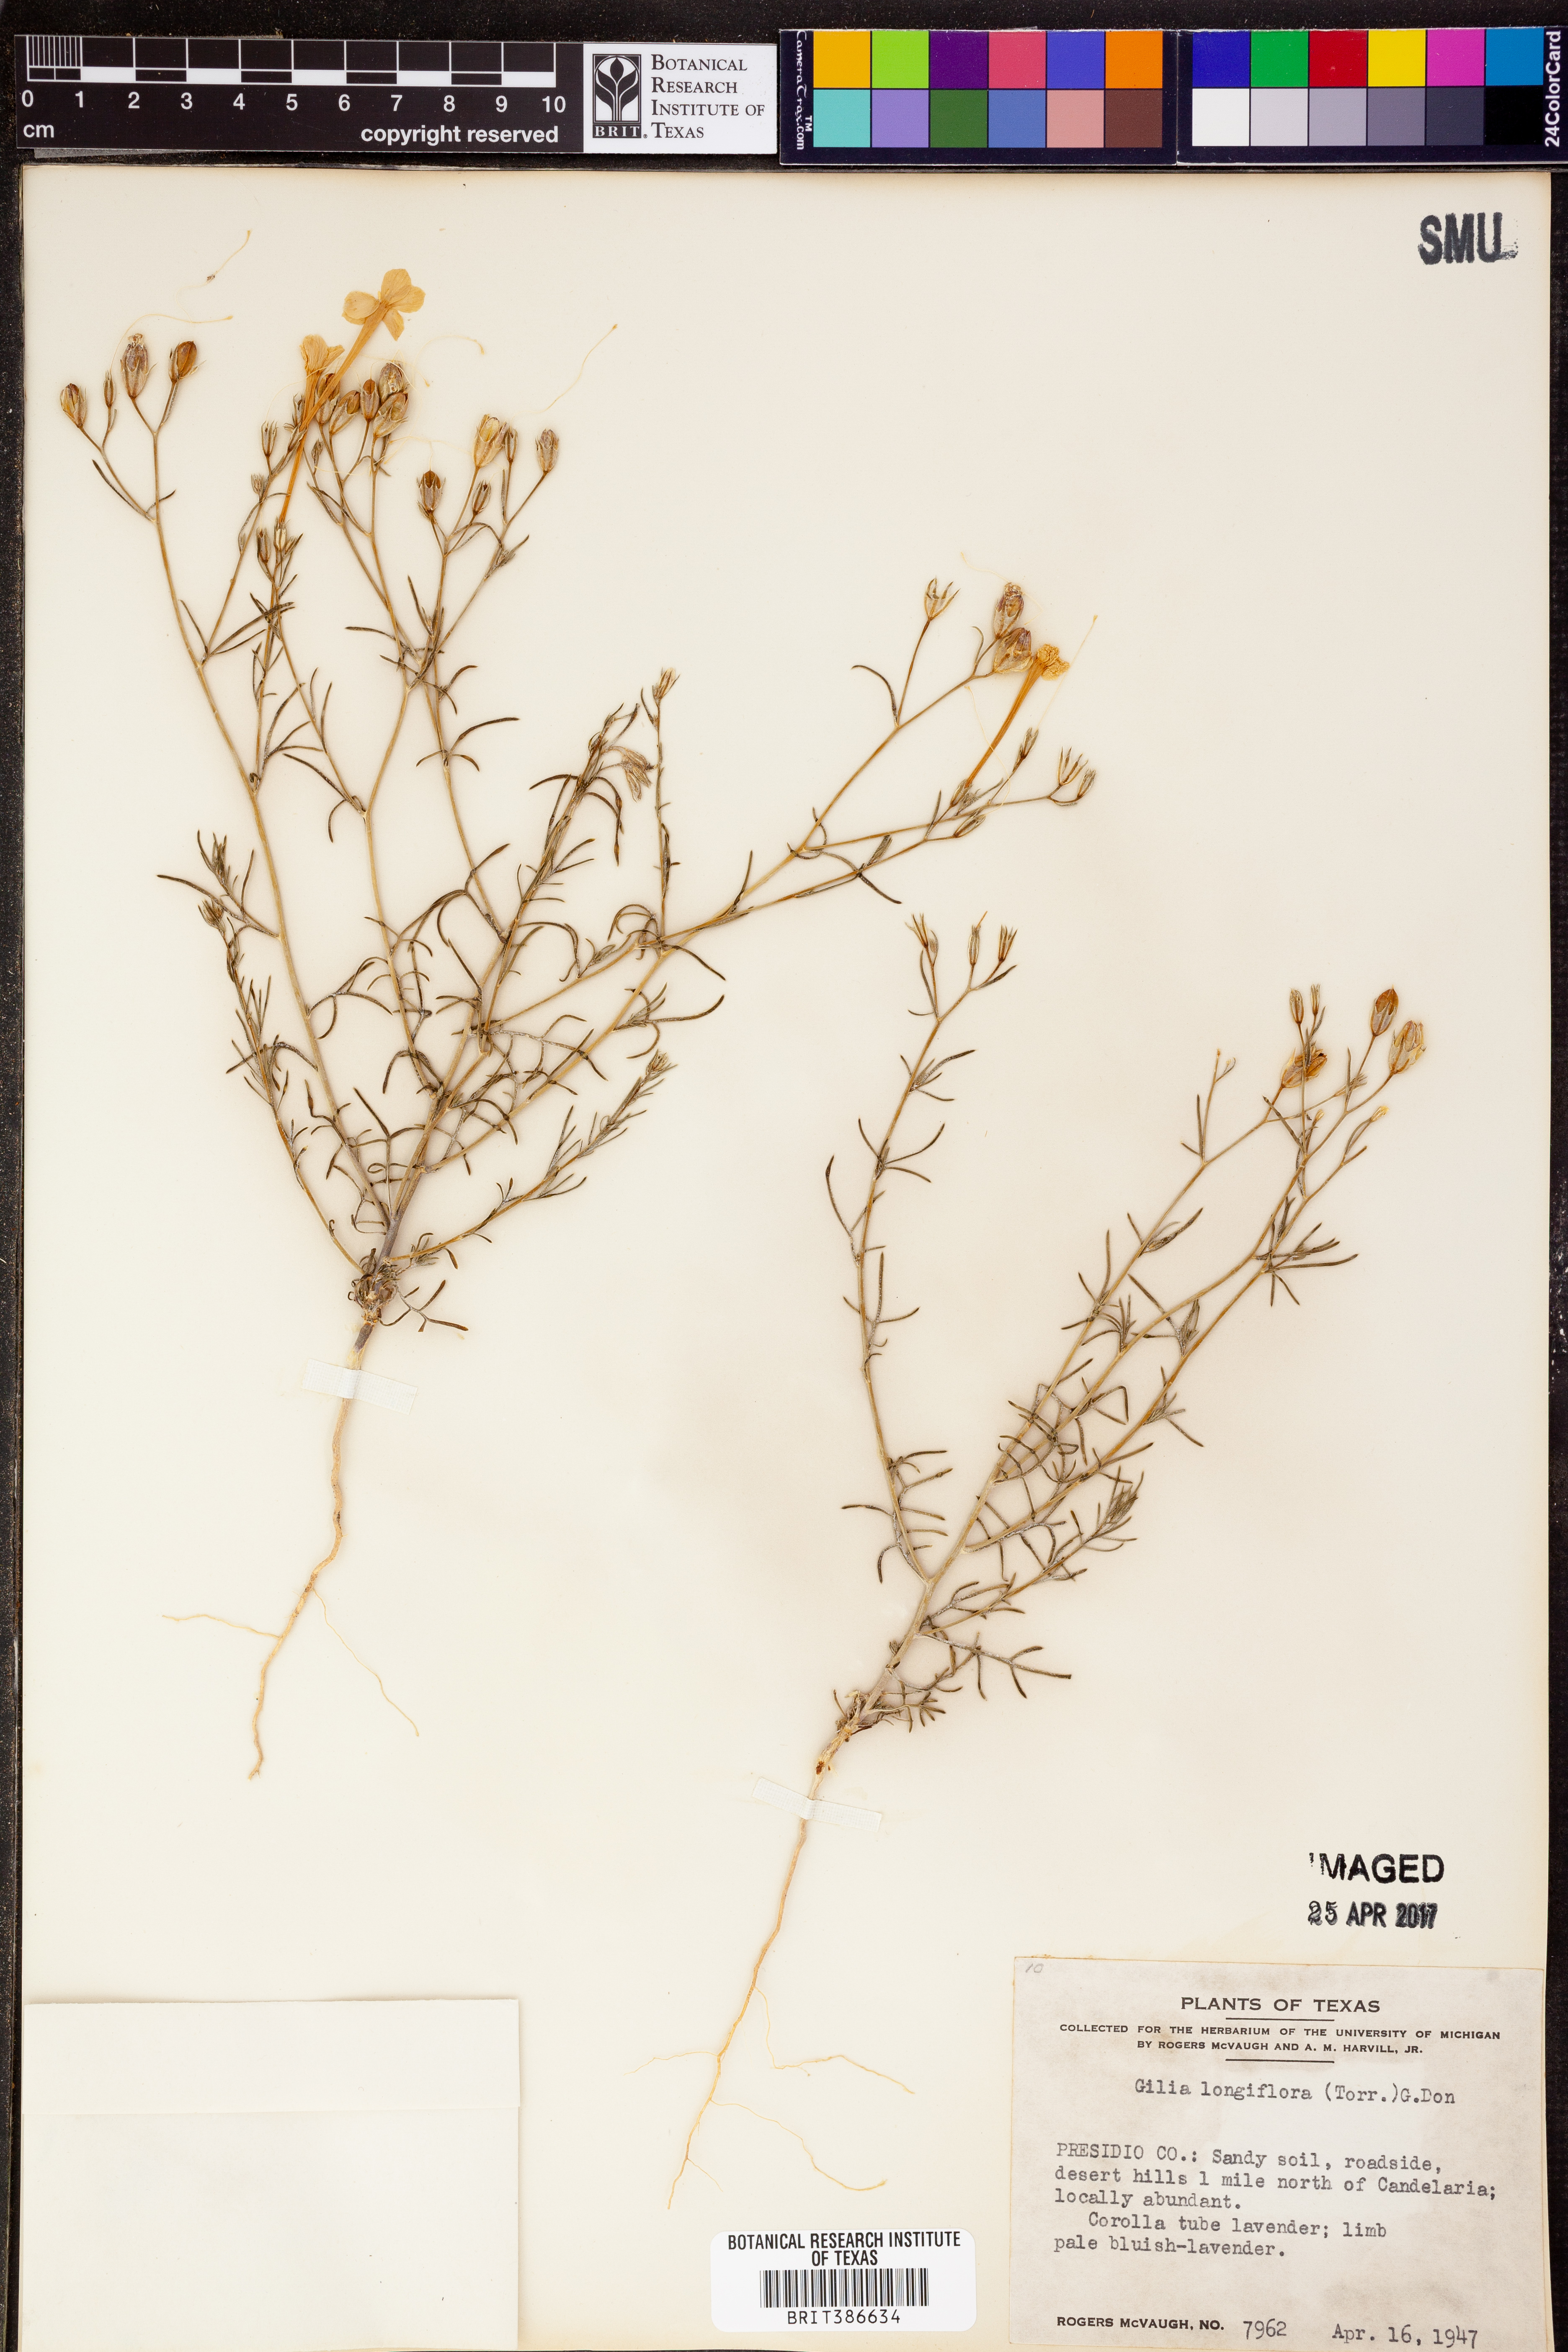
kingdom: Plantae
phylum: Tracheophyta
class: Magnoliopsida
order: Ericales
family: Polemoniaceae
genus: Ipomopsis
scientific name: Ipomopsis longiflora
